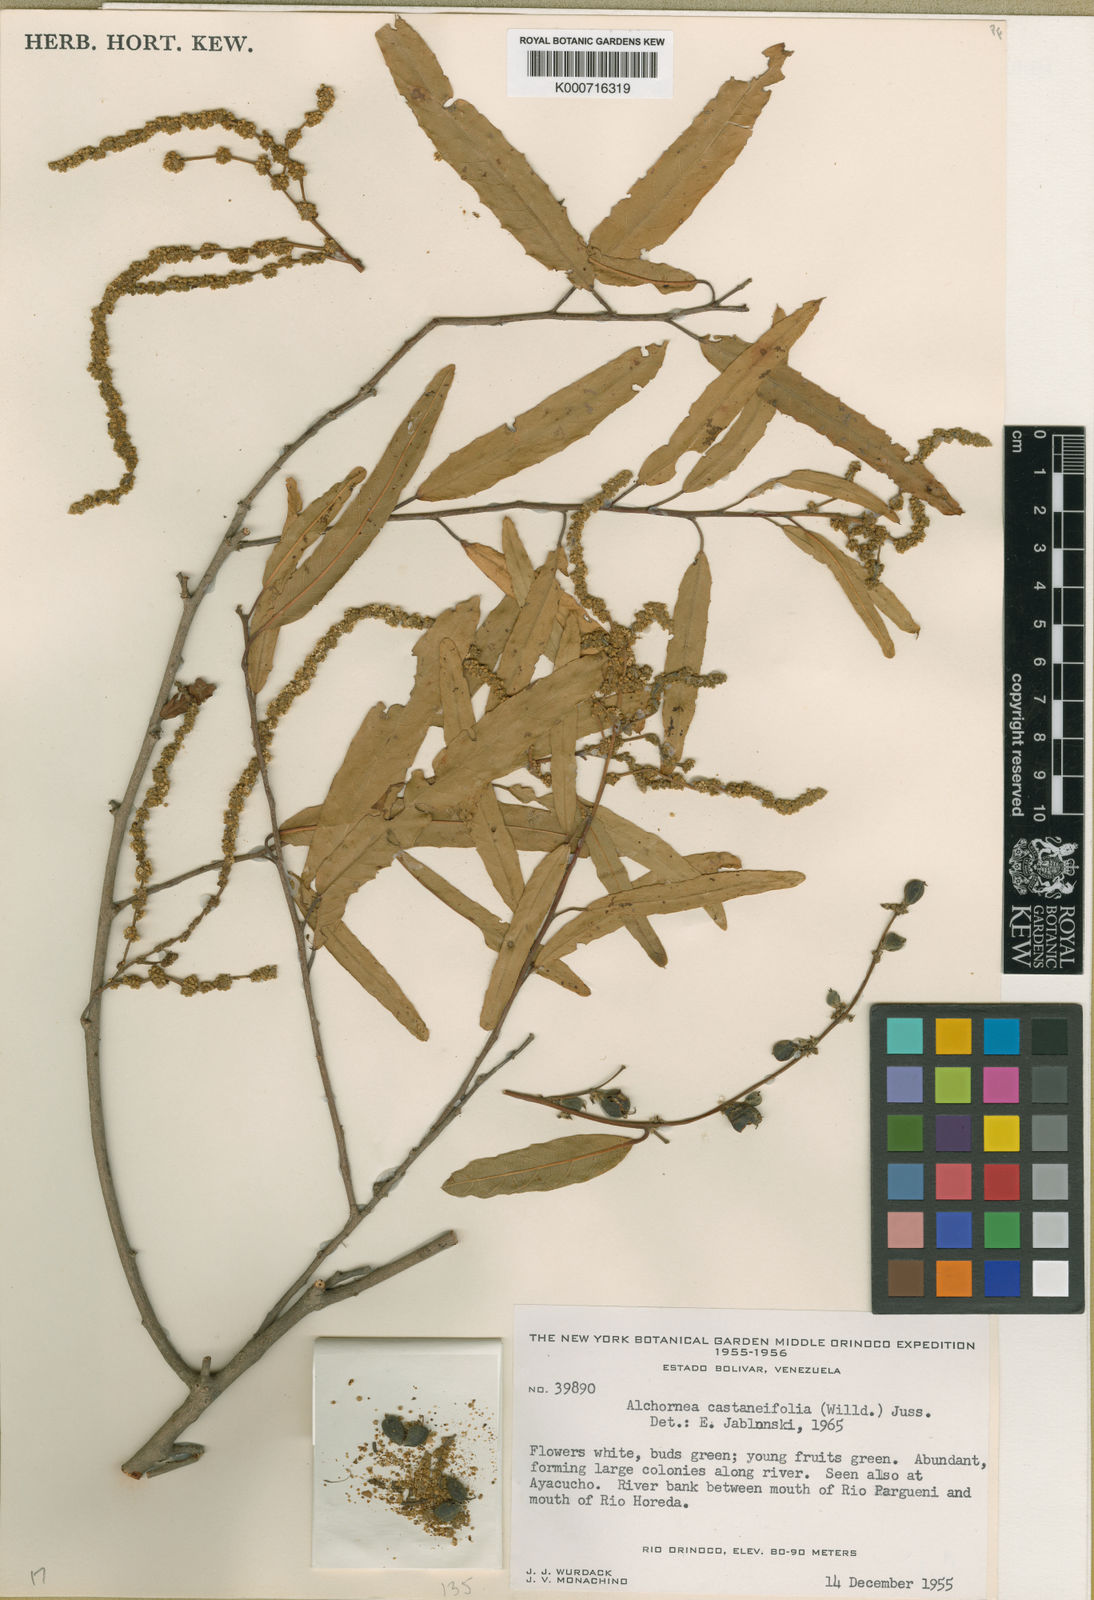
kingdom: Plantae
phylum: Tracheophyta
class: Magnoliopsida
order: Malpighiales
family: Euphorbiaceae
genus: Alchornea
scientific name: Alchornea castaneifolia
